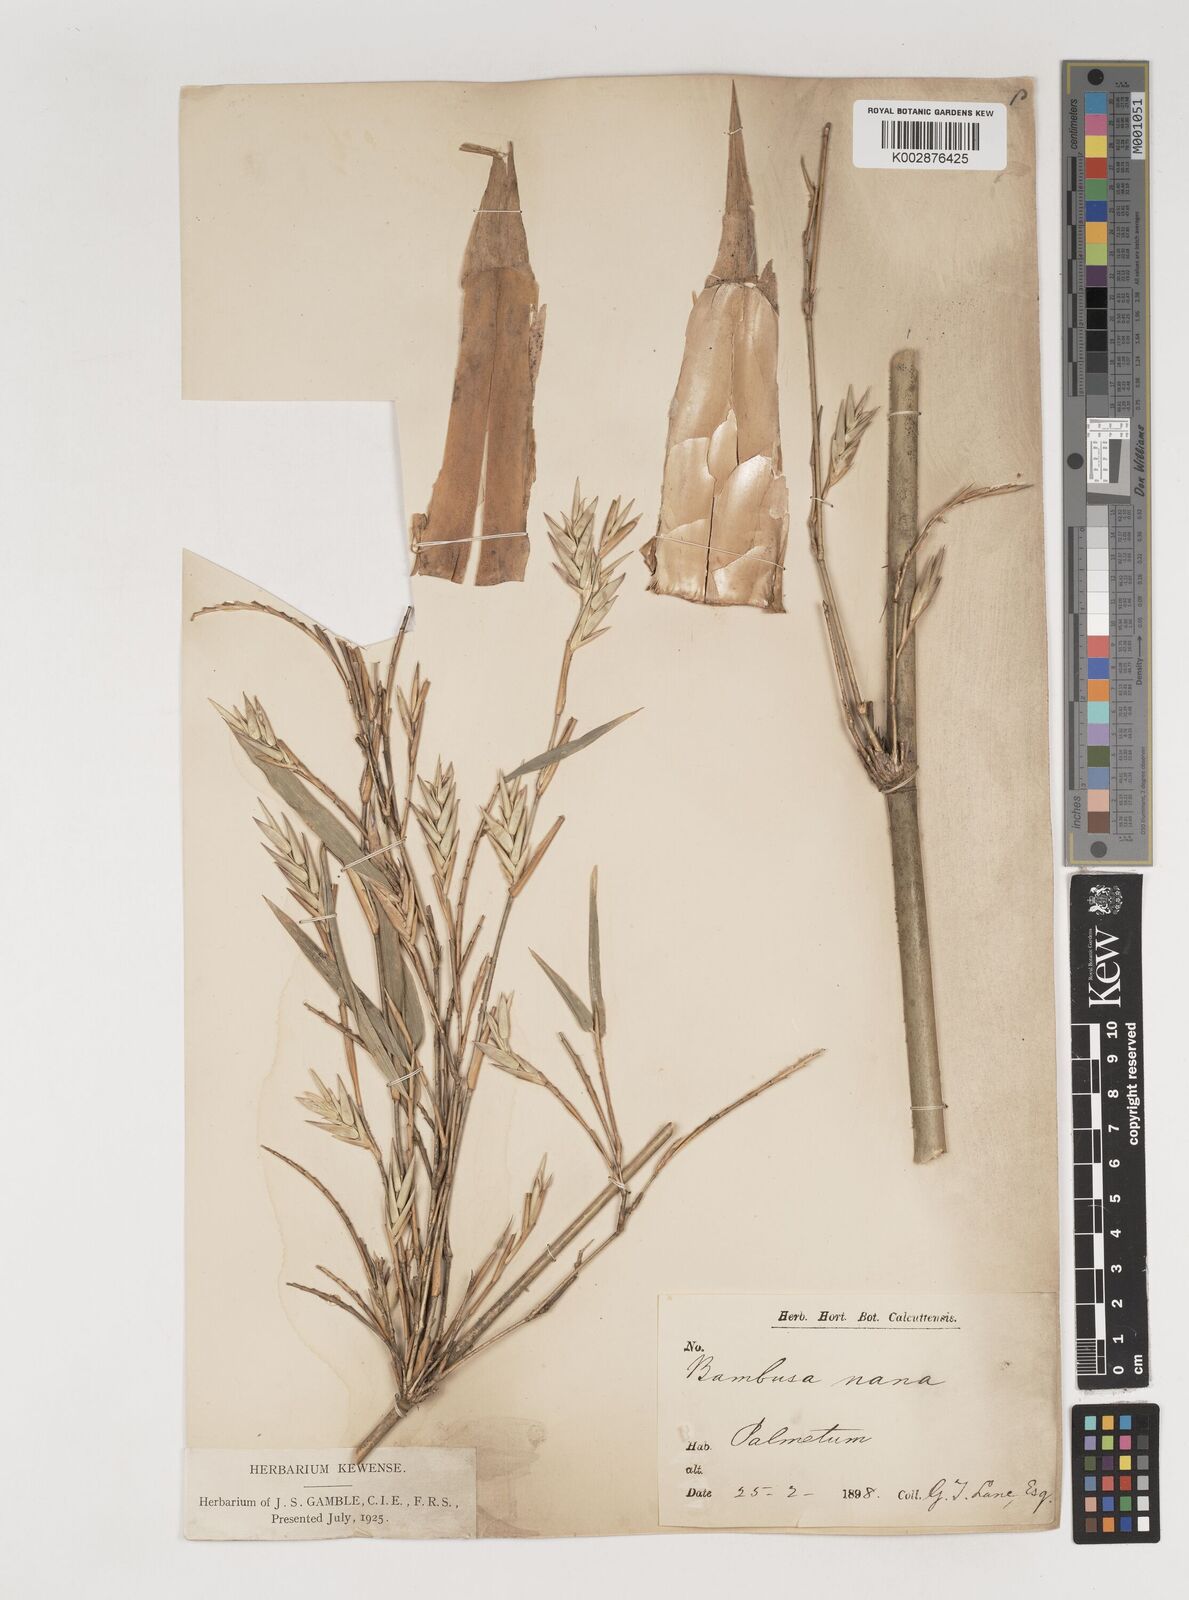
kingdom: Plantae
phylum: Tracheophyta
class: Liliopsida
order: Poales
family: Poaceae
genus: Bambusa
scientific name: Bambusa multiplex
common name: Hedge bamboo
